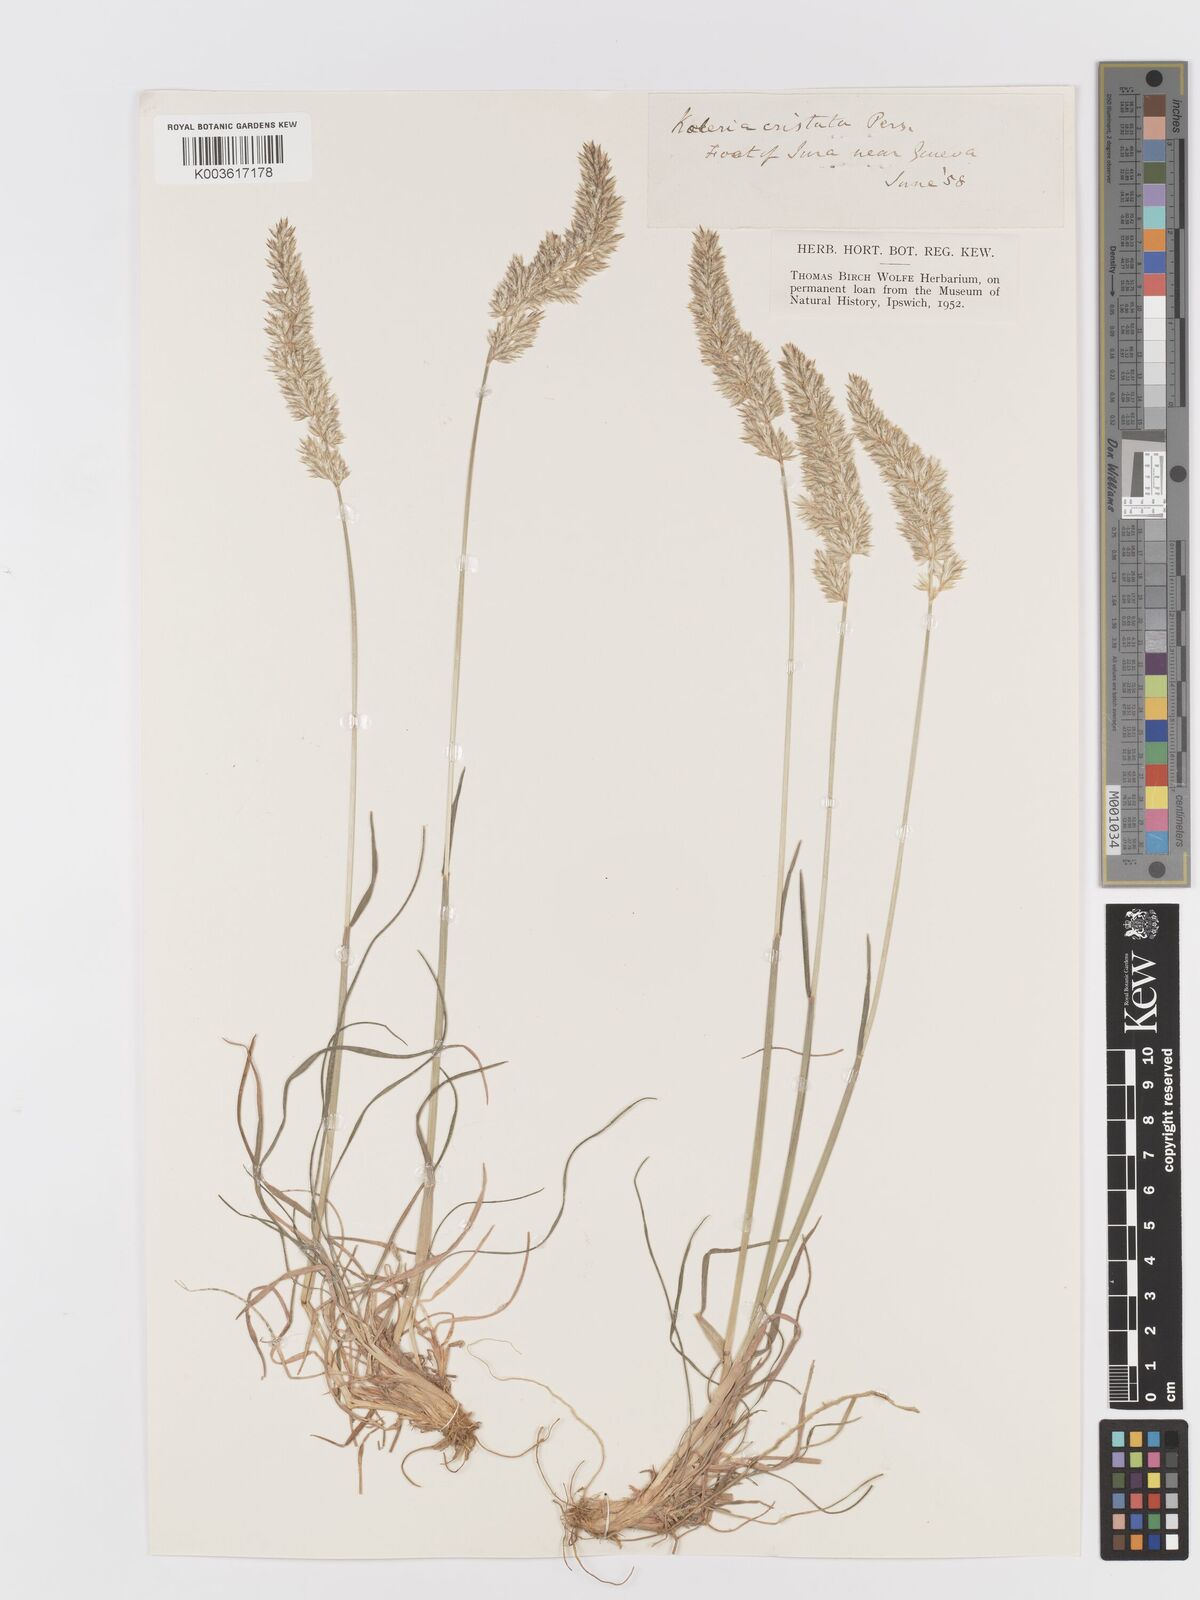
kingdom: Plantae
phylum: Tracheophyta
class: Liliopsida
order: Poales
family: Poaceae
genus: Koeleria
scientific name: Koeleria
